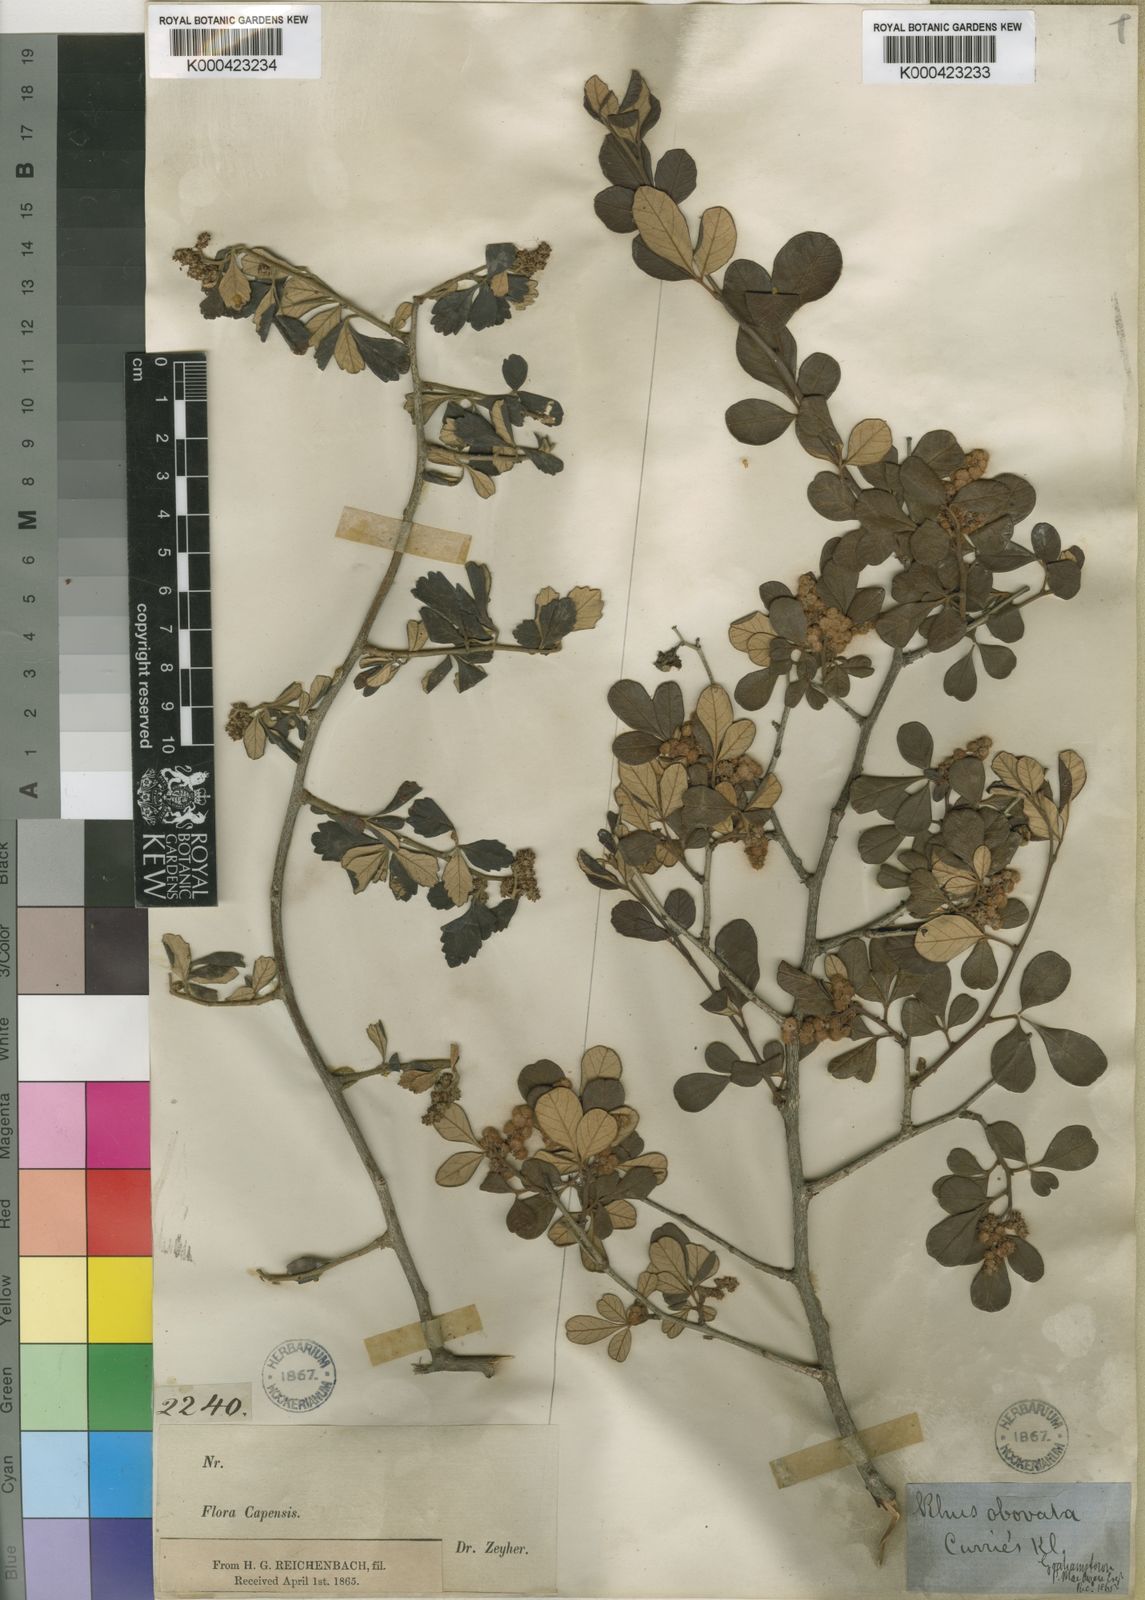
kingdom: Plantae
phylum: Tracheophyta
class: Magnoliopsida
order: Sapindales
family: Anacardiaceae
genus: Searsia
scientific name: Searsia incisa
